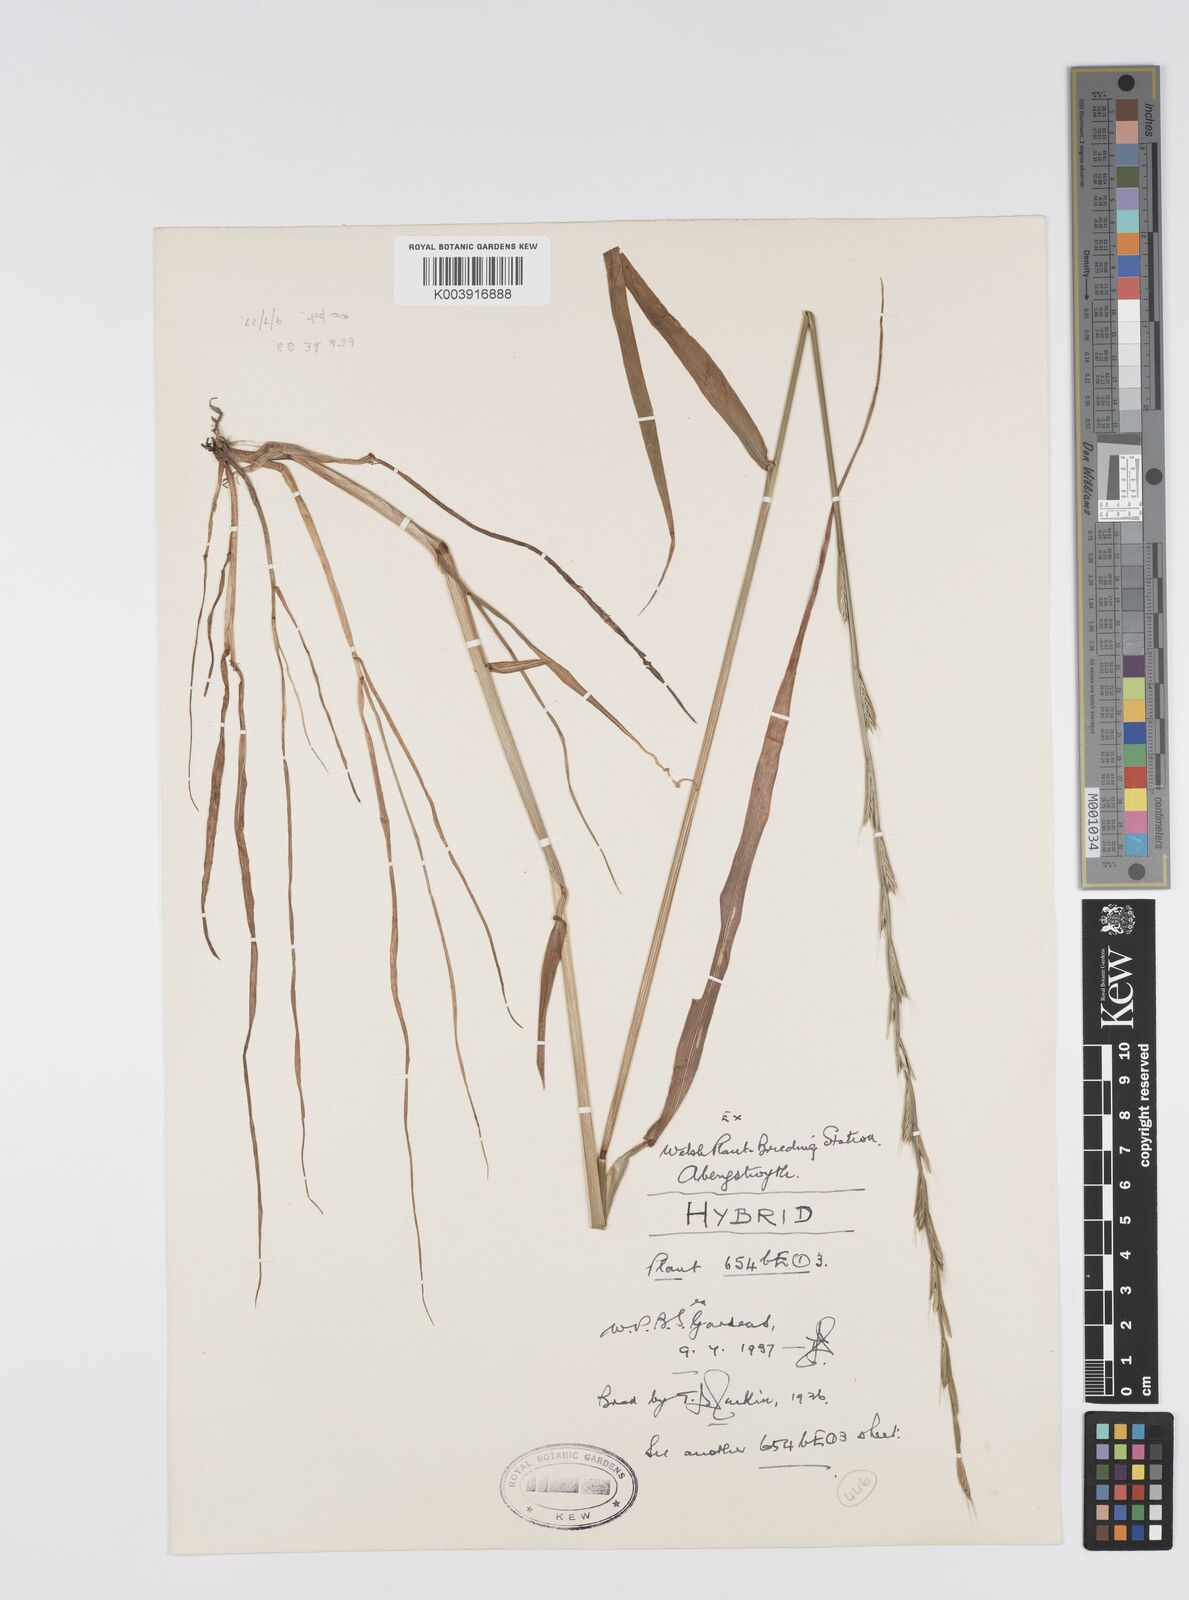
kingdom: Plantae
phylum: Tracheophyta
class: Liliopsida
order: Poales
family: Poaceae
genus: Lolium
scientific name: Lolium multiflorum
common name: Annual ryegrass
